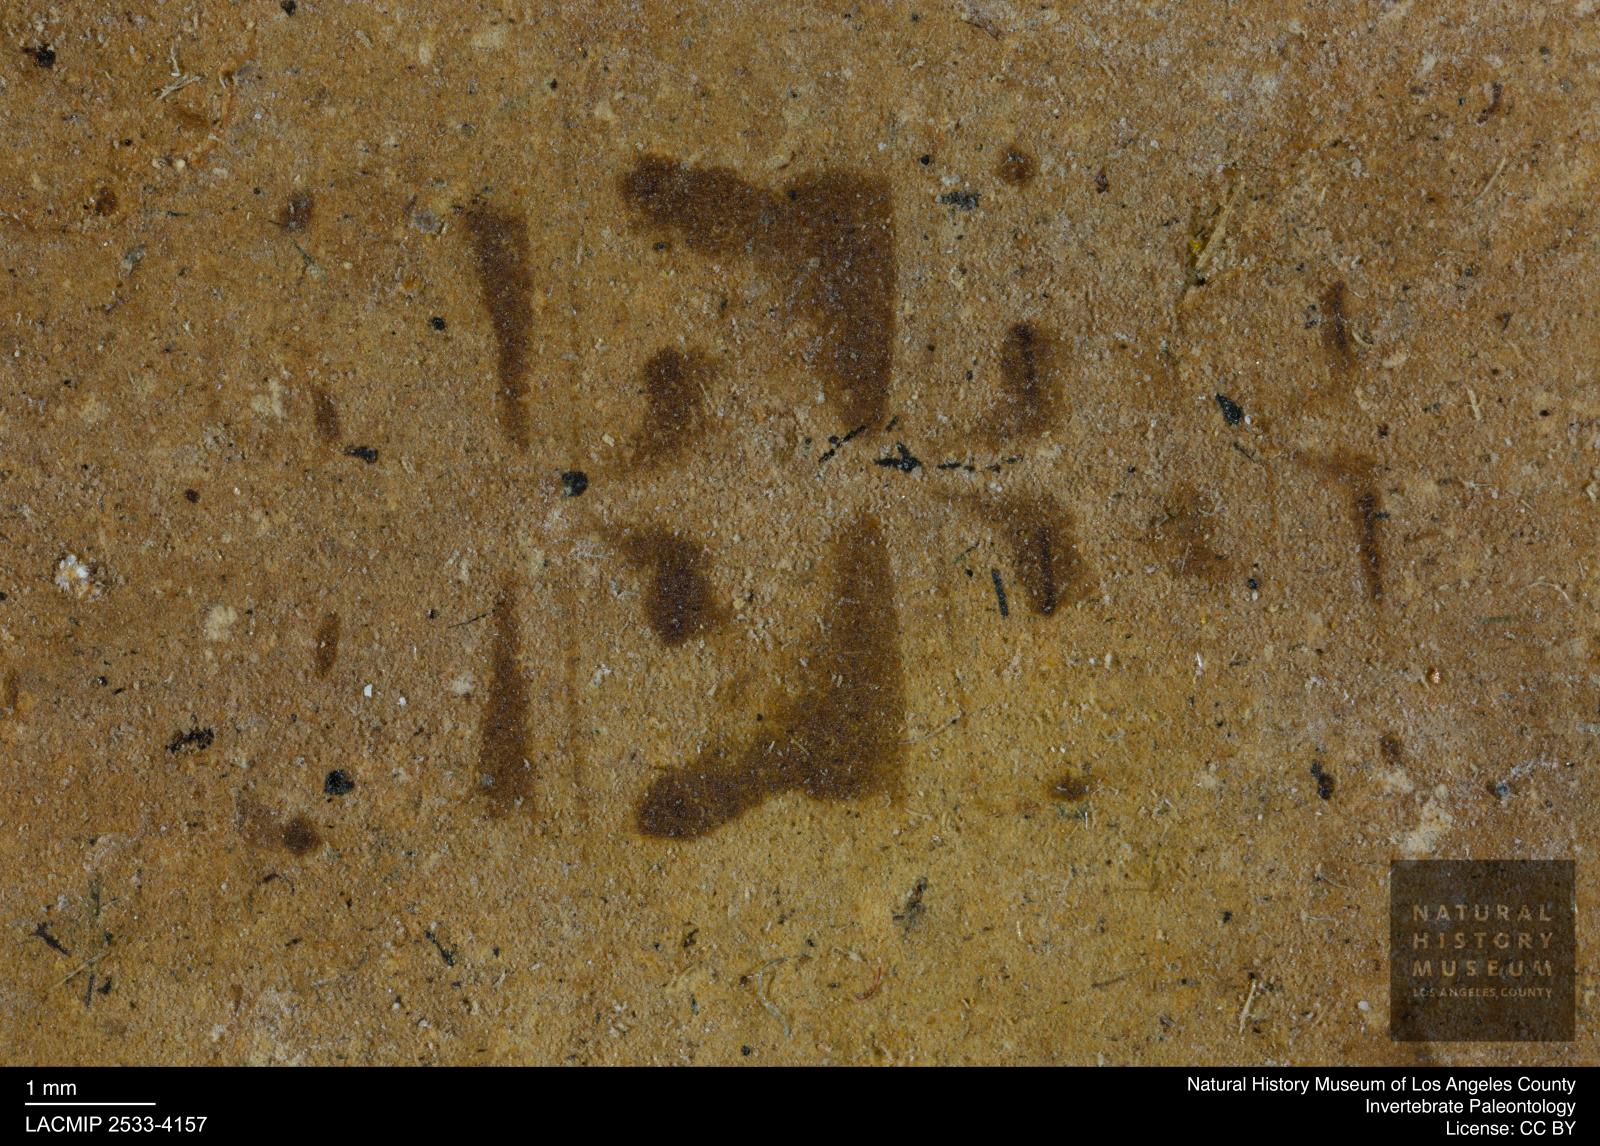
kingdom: Animalia
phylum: Arthropoda
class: Insecta
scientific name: Insecta
